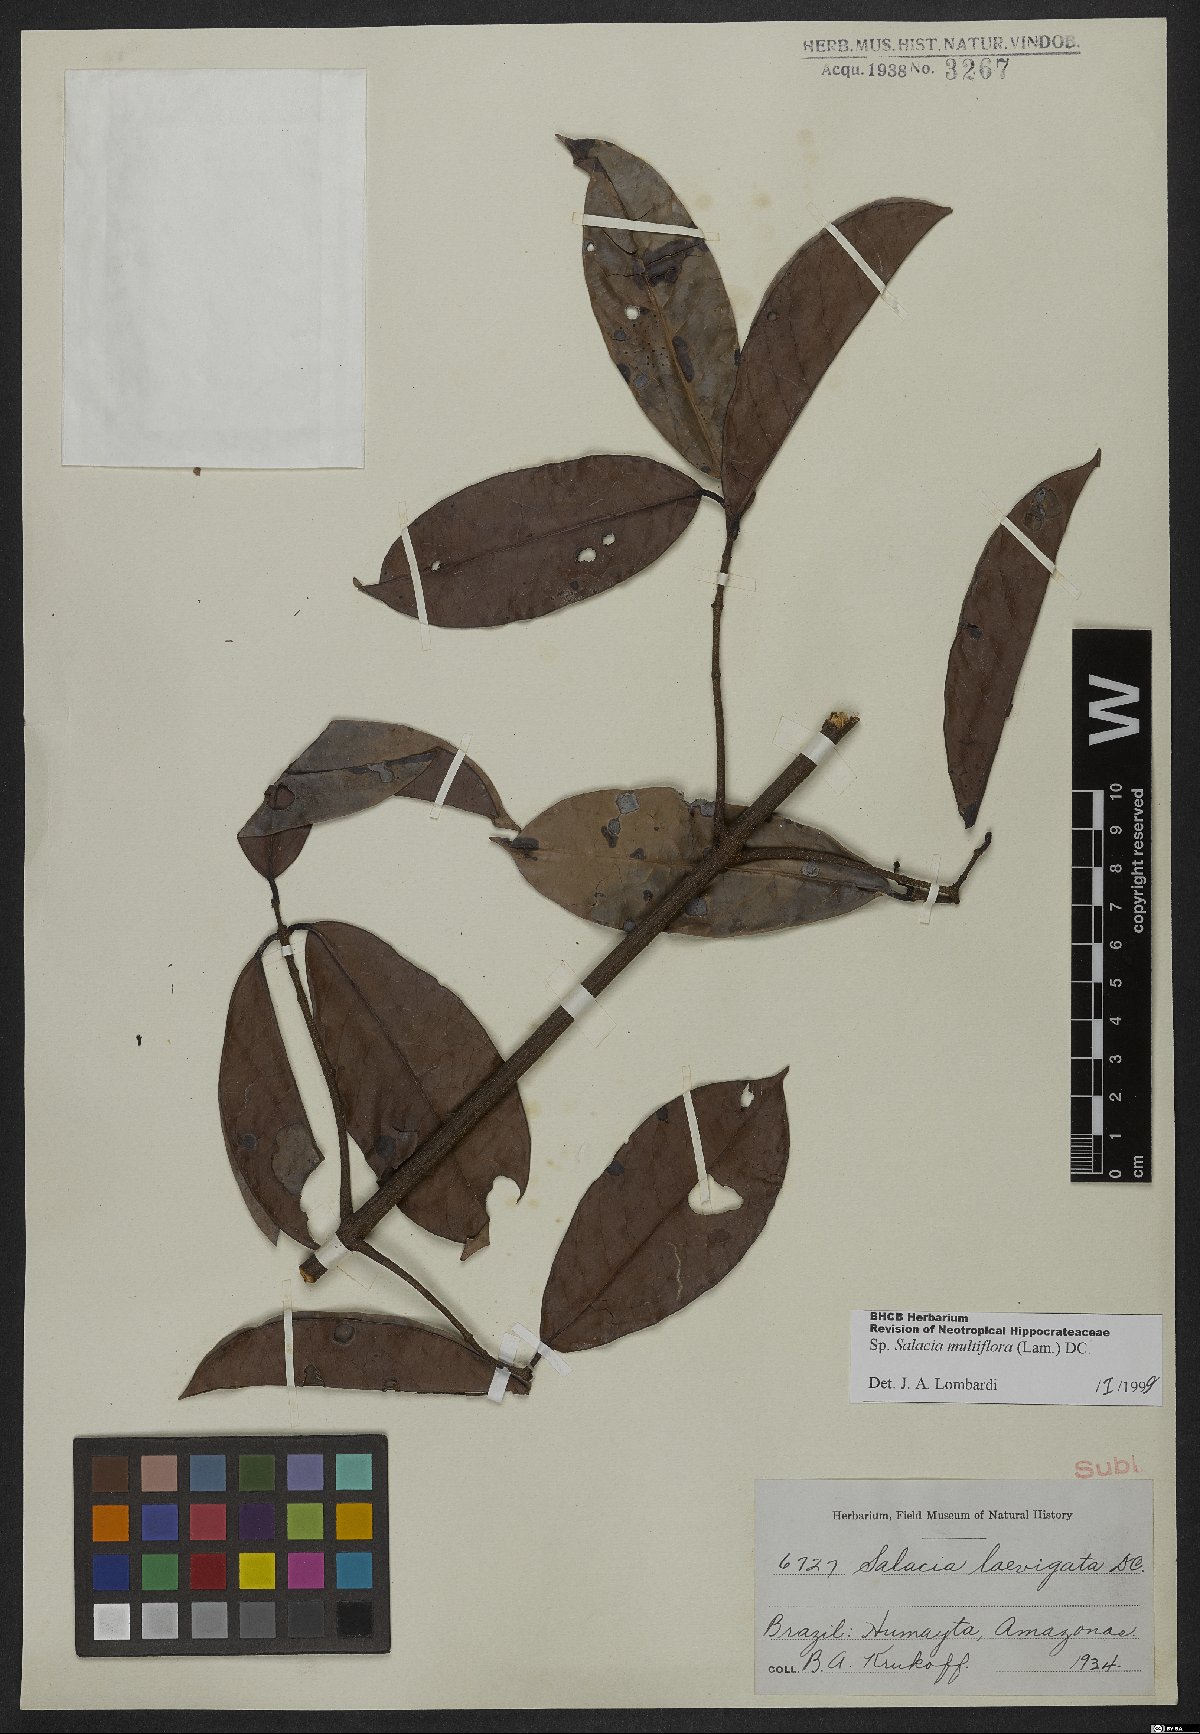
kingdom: Plantae
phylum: Tracheophyta
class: Magnoliopsida
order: Celastrales
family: Celastraceae
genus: Salacia
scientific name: Salacia multiflora
